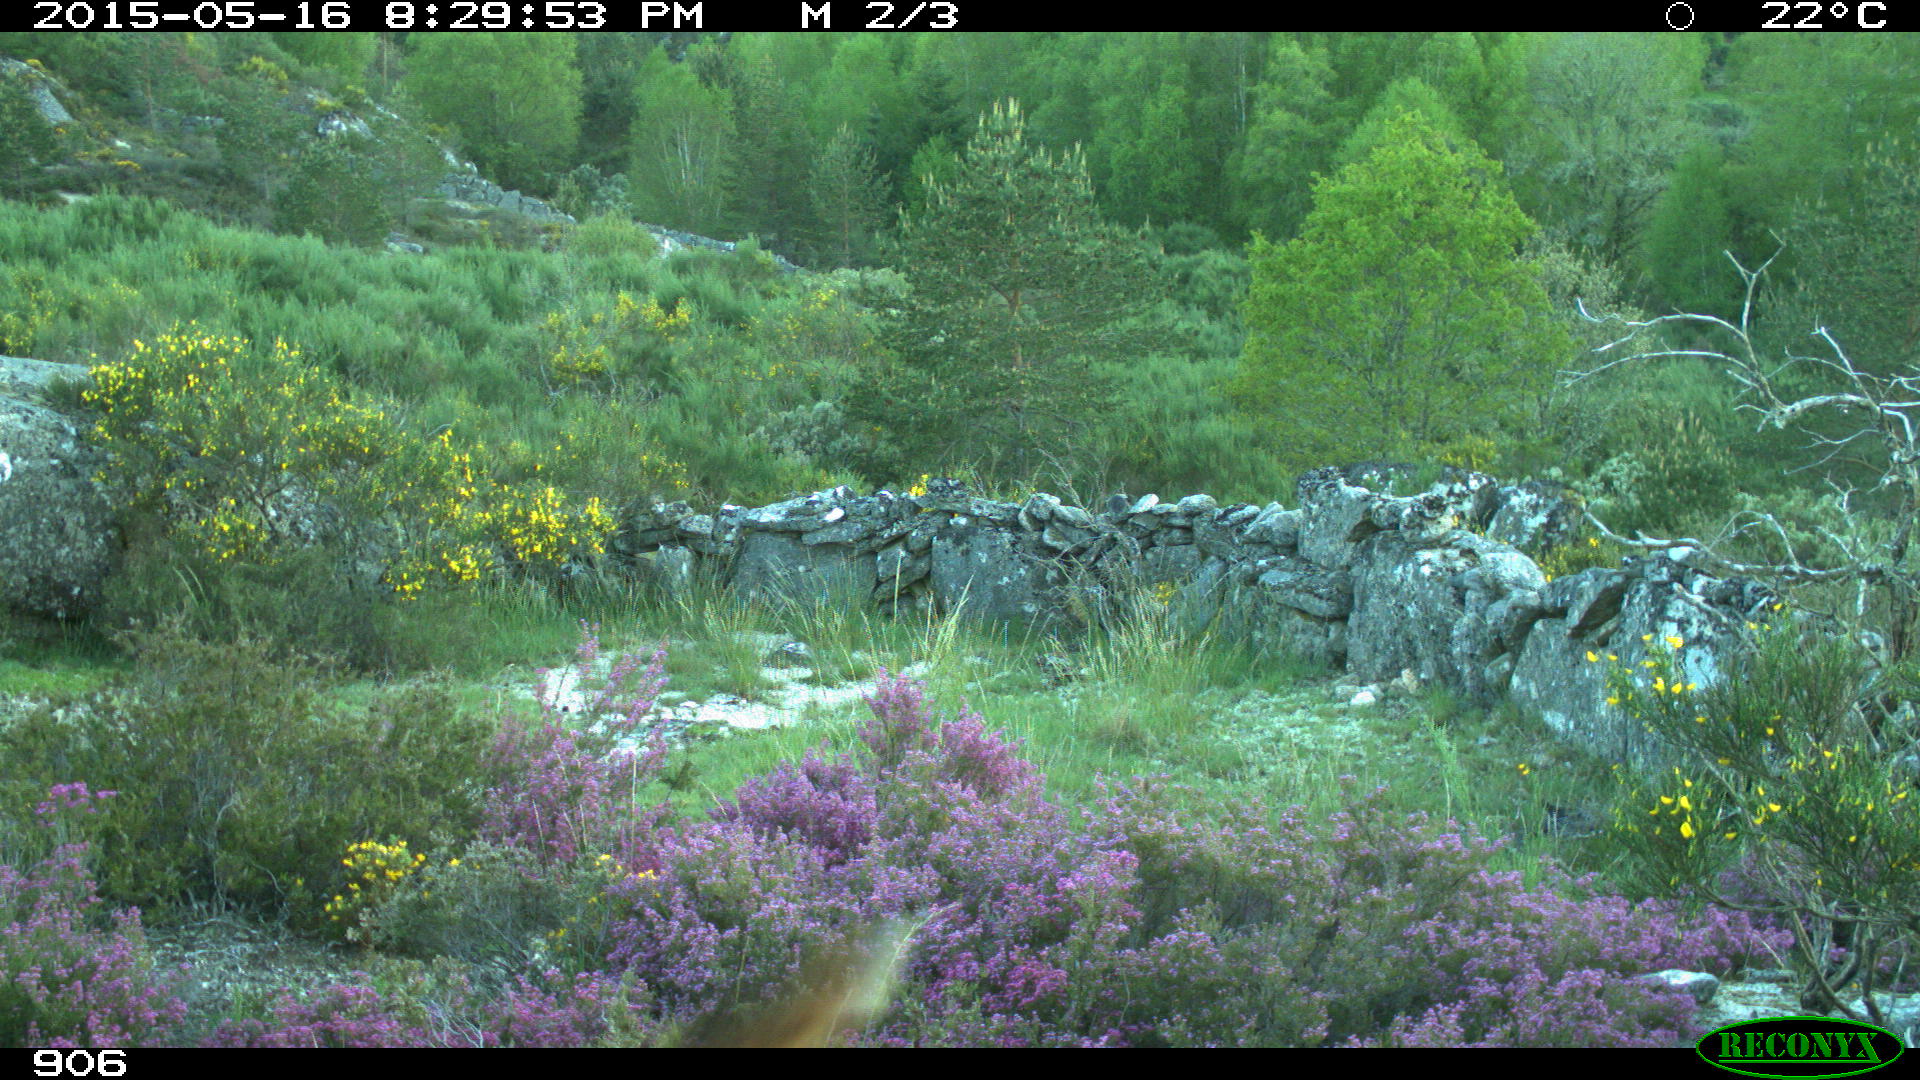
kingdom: Animalia
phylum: Chordata
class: Mammalia
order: Carnivora
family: Canidae
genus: Canis
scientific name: Canis lupus
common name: Gray wolf
